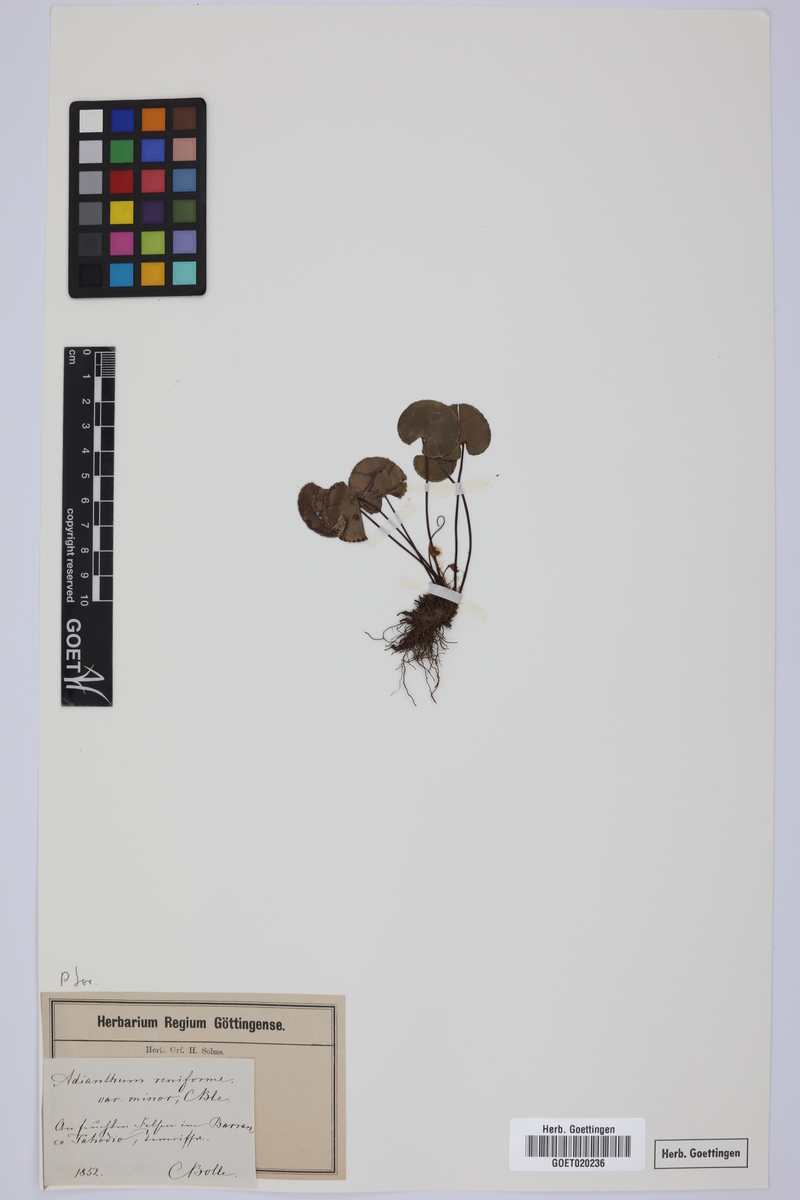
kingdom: Plantae
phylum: Tracheophyta
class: Polypodiopsida
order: Polypodiales
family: Pteridaceae
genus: Adiantum
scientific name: Adiantum reniforme
